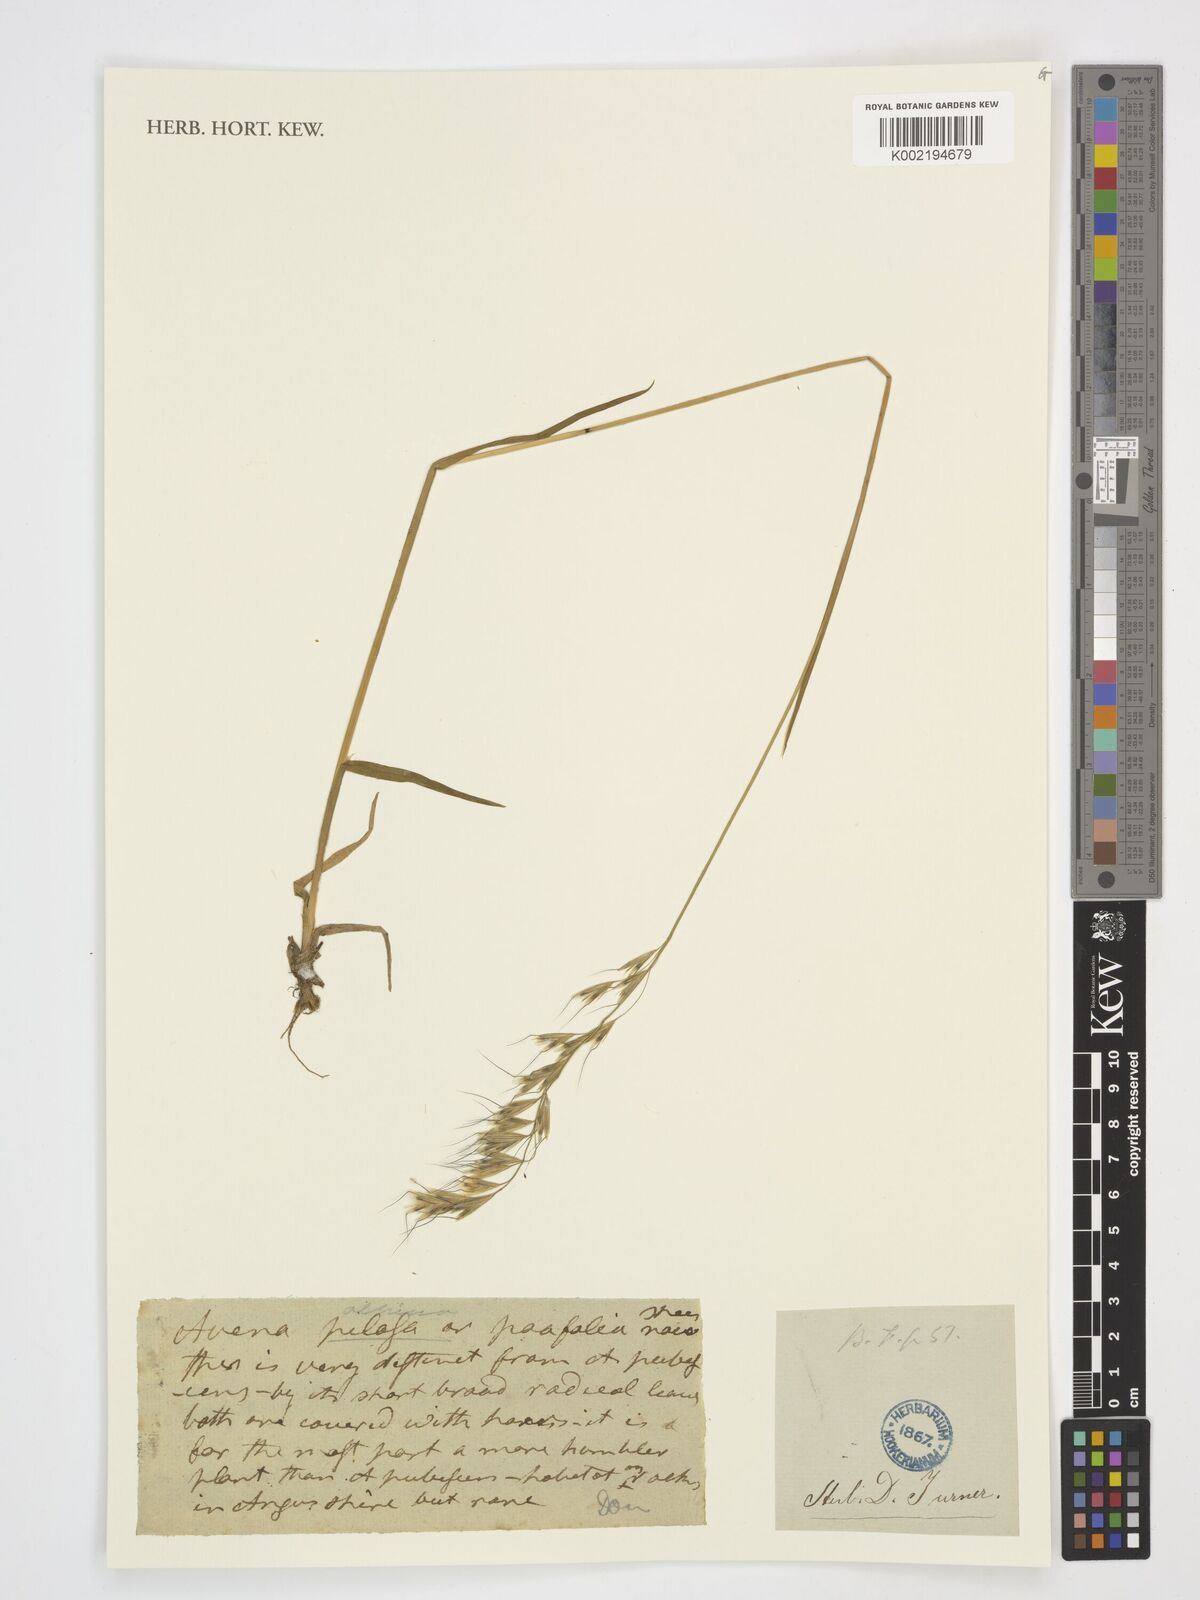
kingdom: Plantae
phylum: Tracheophyta
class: Liliopsida
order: Poales
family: Poaceae
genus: Helictotrichon
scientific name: Helictotrichon
